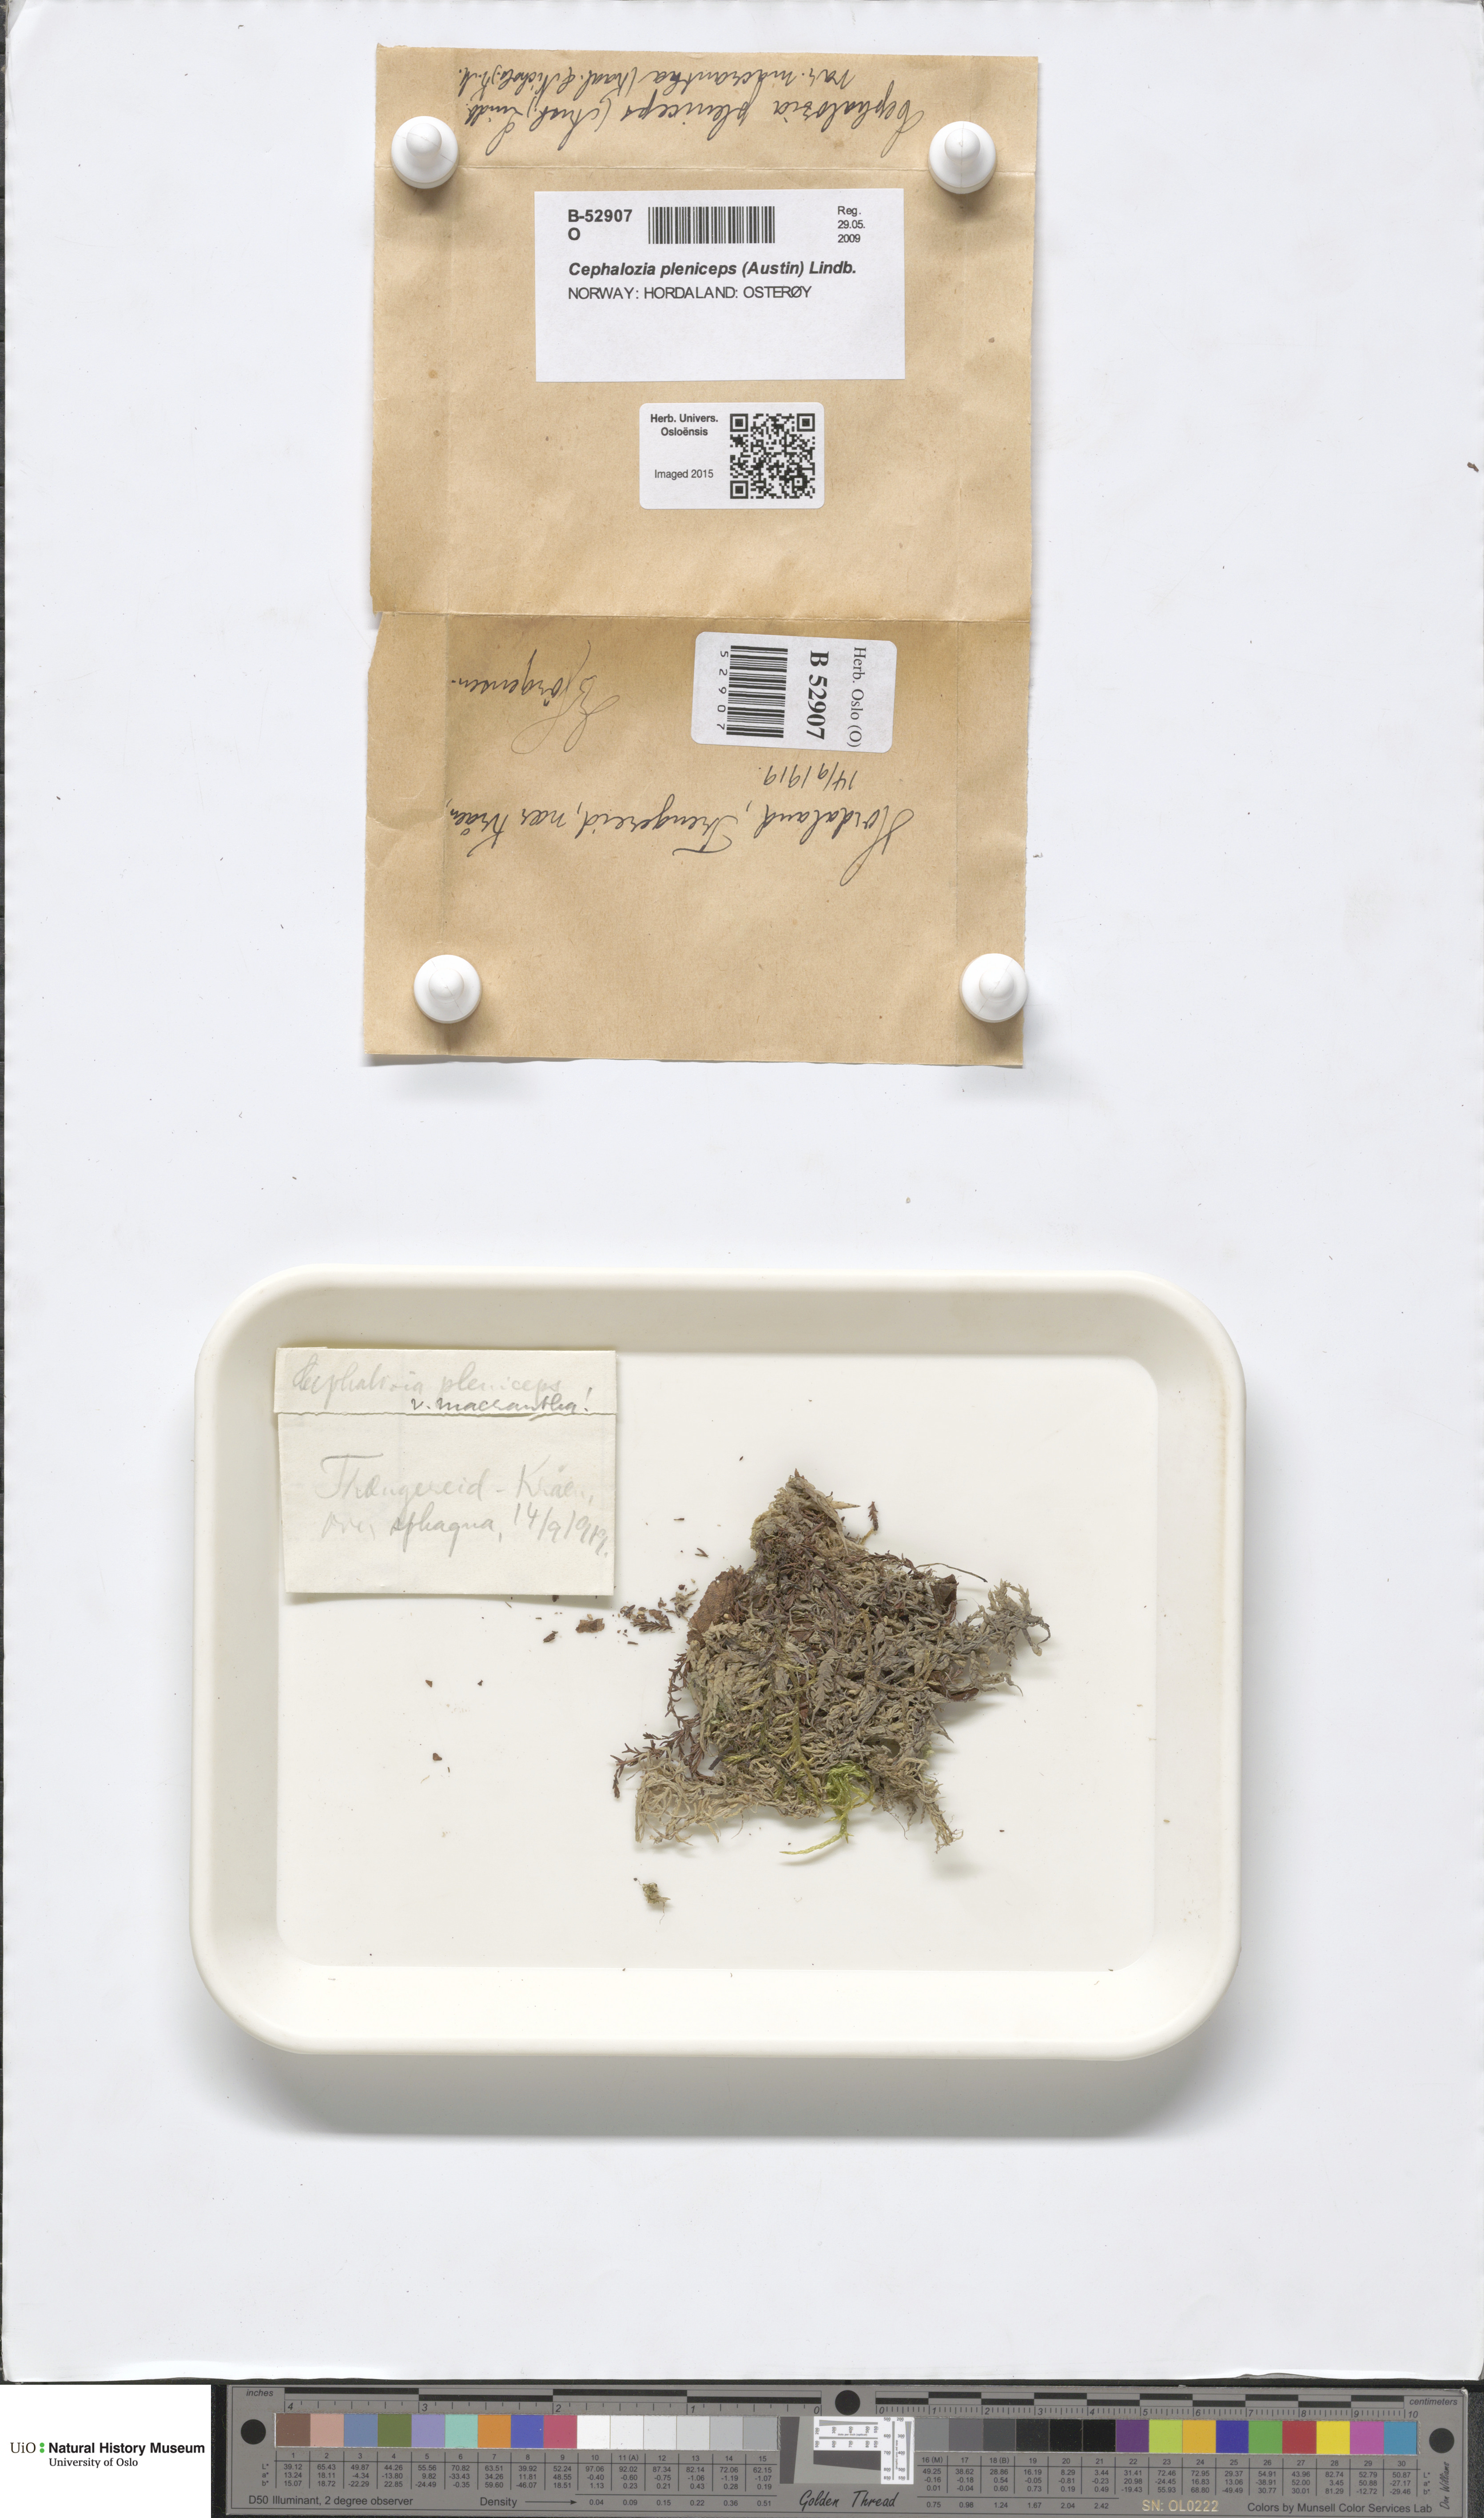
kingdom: Plantae
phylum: Marchantiophyta
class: Jungermanniopsida
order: Jungermanniales
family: Cephaloziaceae
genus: Fuscocephaloziopsis
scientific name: Fuscocephaloziopsis pleniceps
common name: Blunt pincerwort
